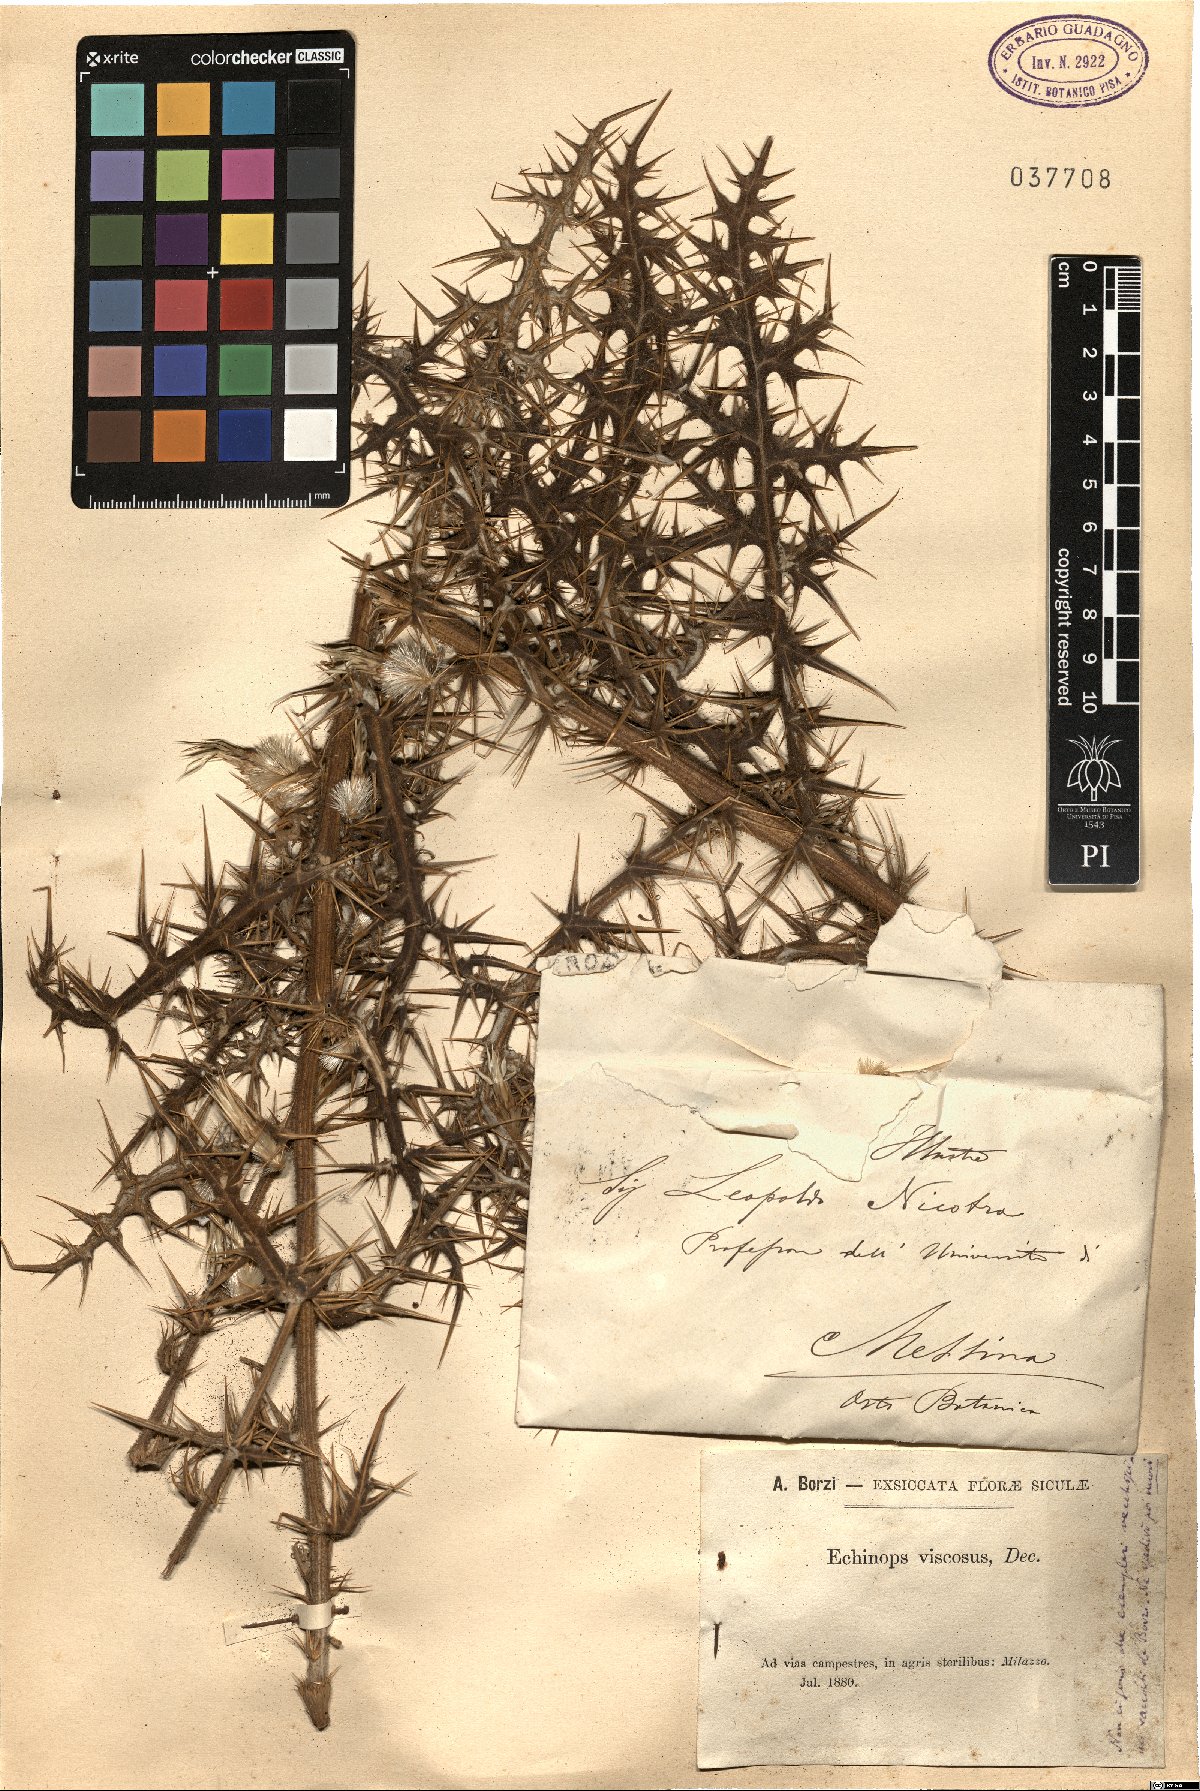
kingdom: Plantae
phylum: Tracheophyta
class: Magnoliopsida
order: Asterales
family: Asteraceae
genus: Echinops
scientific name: Echinops spinosissimus
